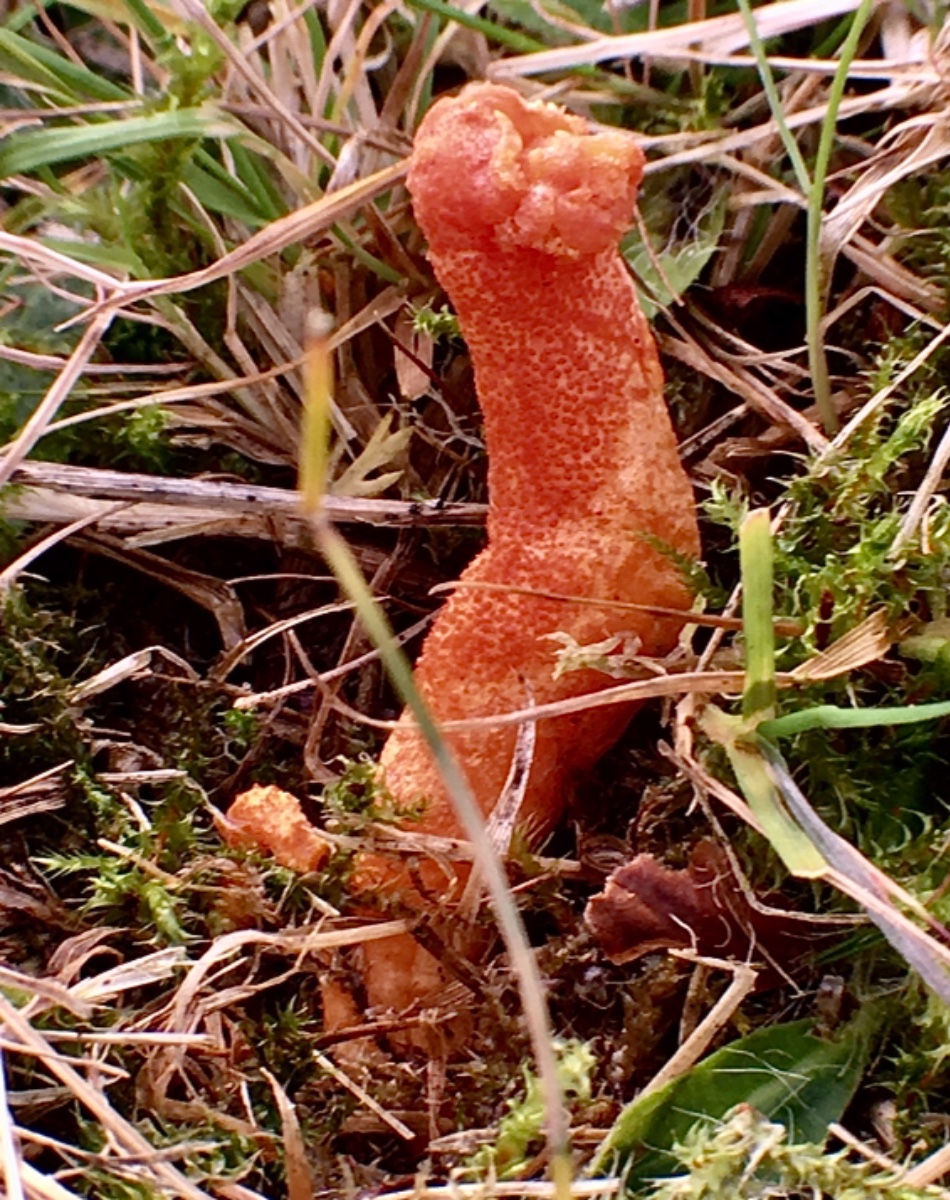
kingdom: Fungi
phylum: Ascomycota
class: Sordariomycetes
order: Hypocreales
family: Cordycipitaceae
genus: Cordyceps
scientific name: Cordyceps militaris
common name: puppe-snyltekølle
